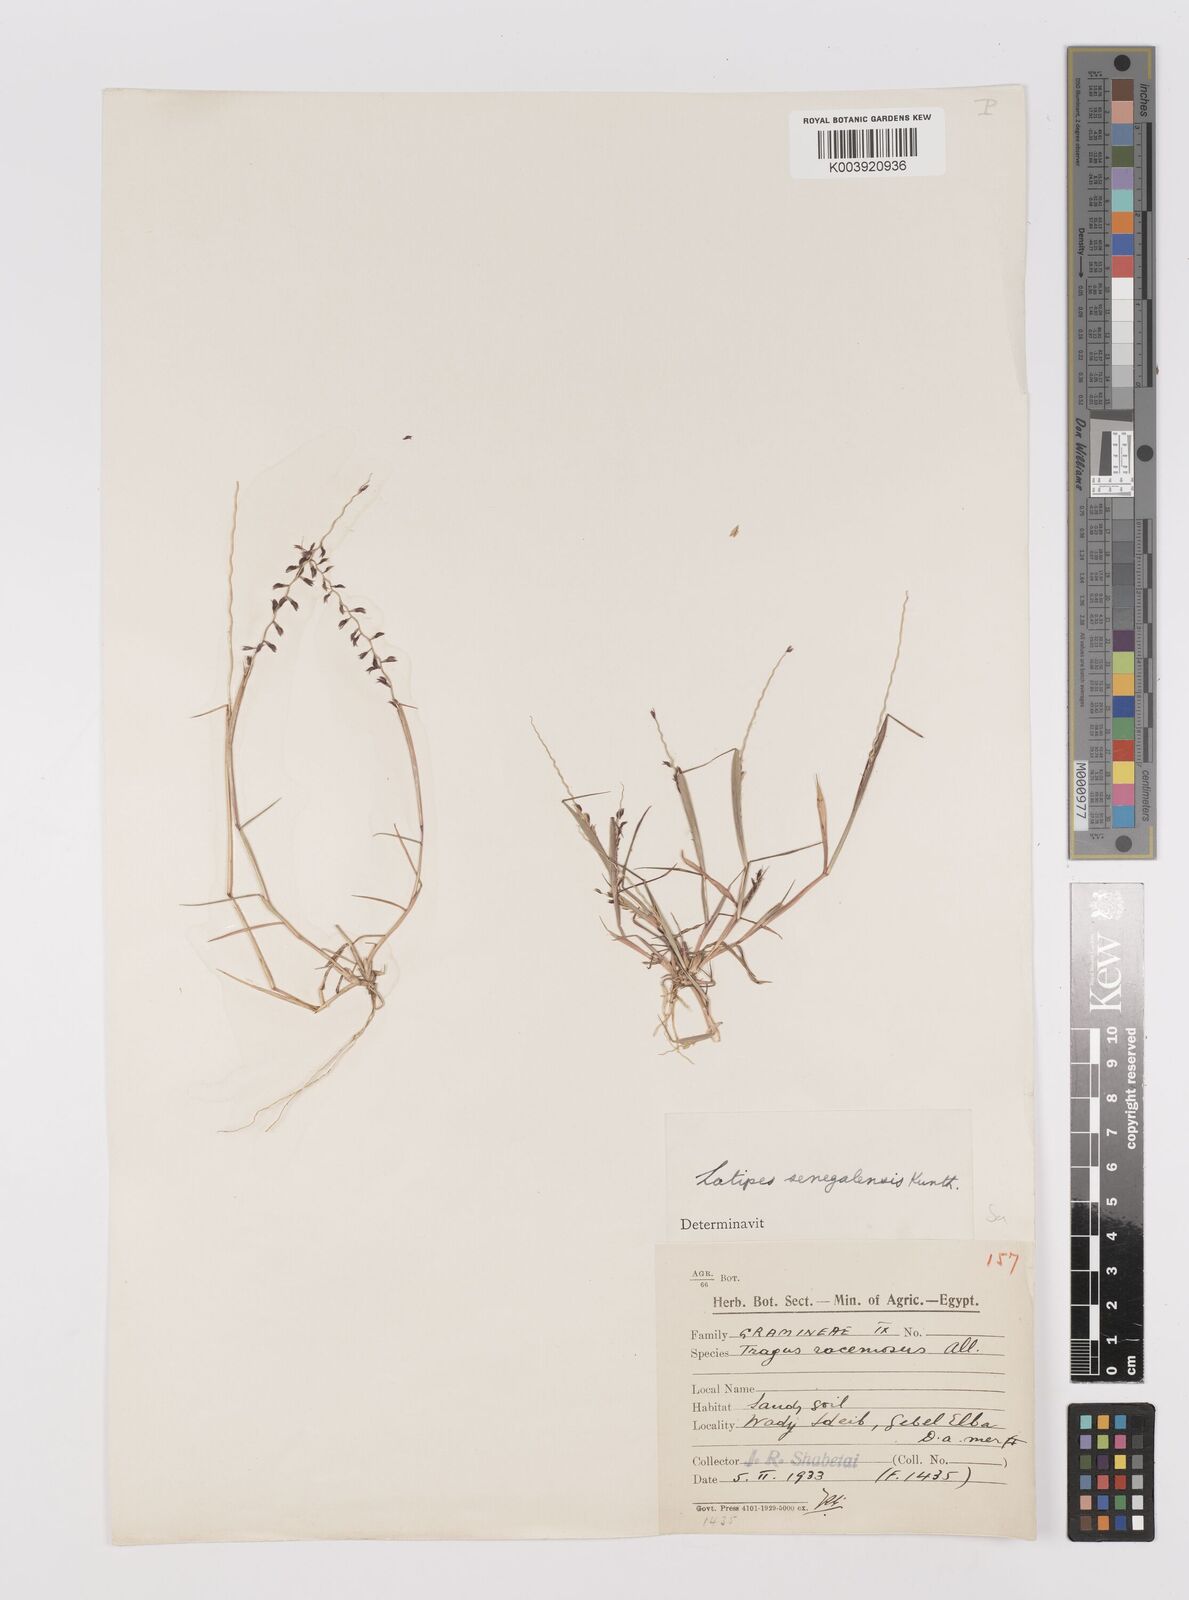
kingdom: Plantae
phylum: Tracheophyta
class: Liliopsida
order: Poales
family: Poaceae
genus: Leptothrium
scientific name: Leptothrium senegalense
